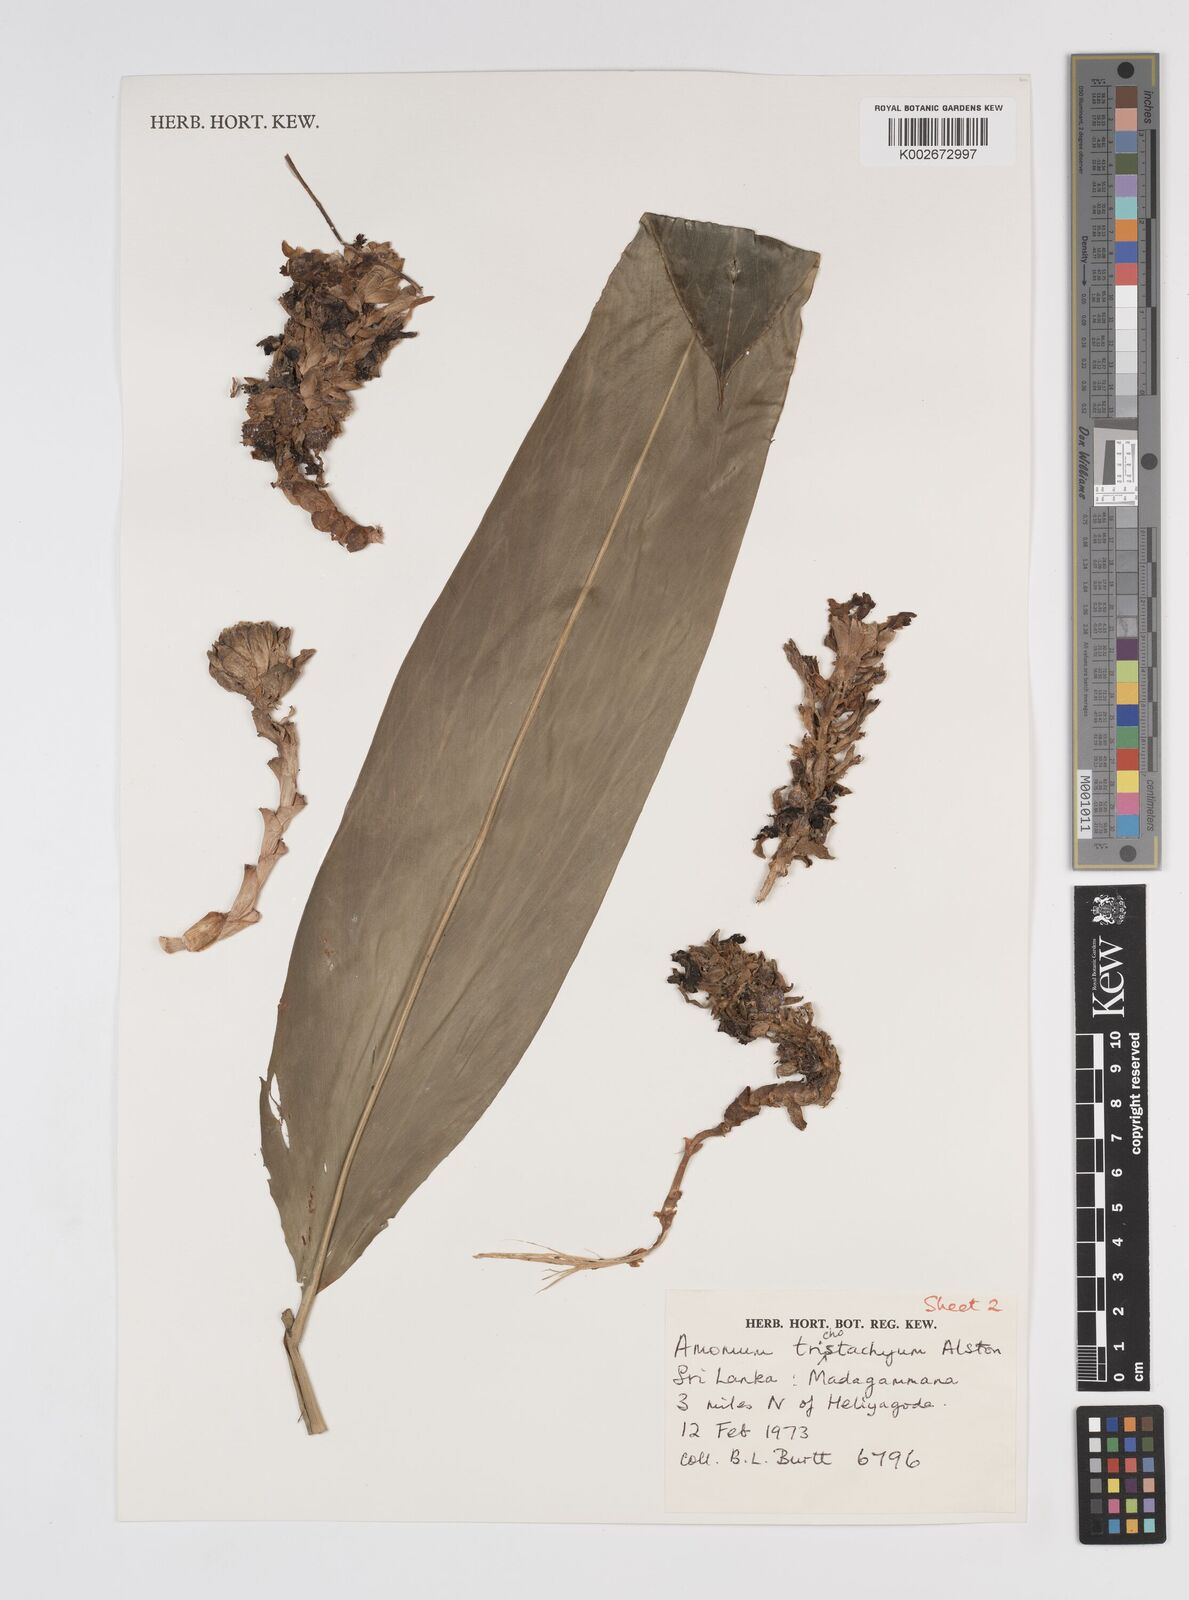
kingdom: Plantae
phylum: Tracheophyta
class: Liliopsida
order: Zingiberales
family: Zingiberaceae
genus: Meistera
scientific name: Meistera trichostachya
